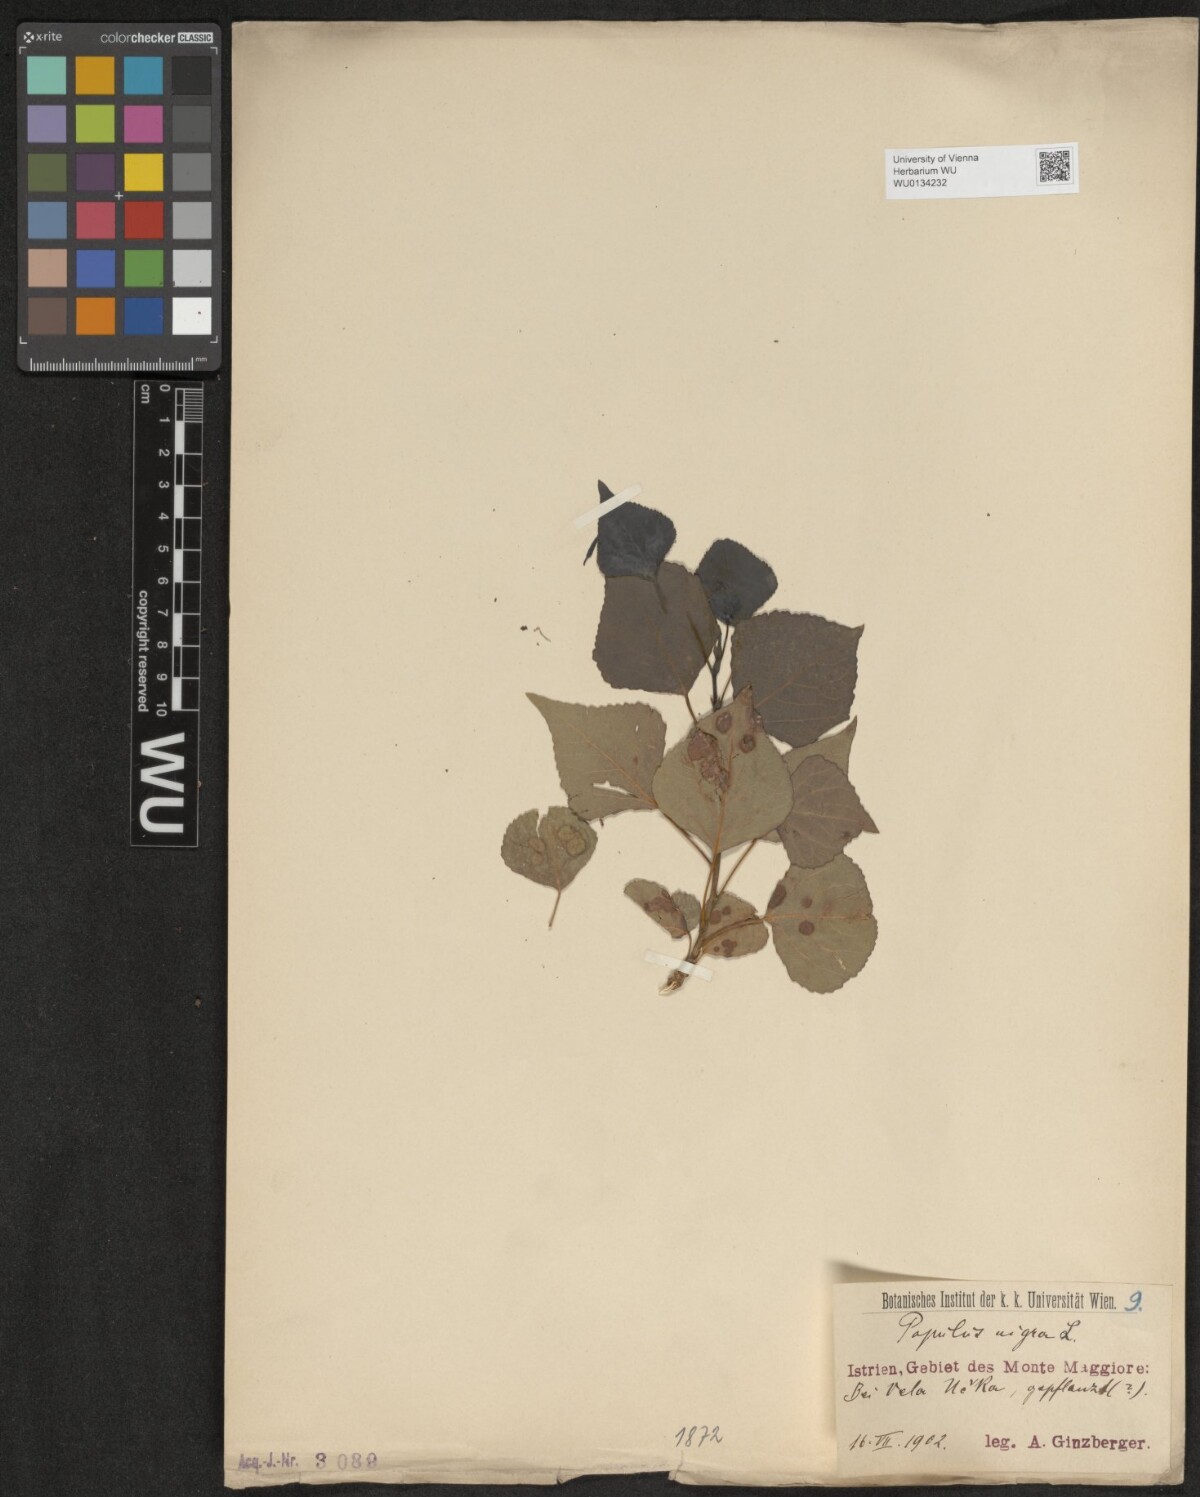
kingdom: Plantae
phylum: Tracheophyta
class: Magnoliopsida
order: Malpighiales
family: Salicaceae
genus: Populus
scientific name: Populus nigra
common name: Black poplar
